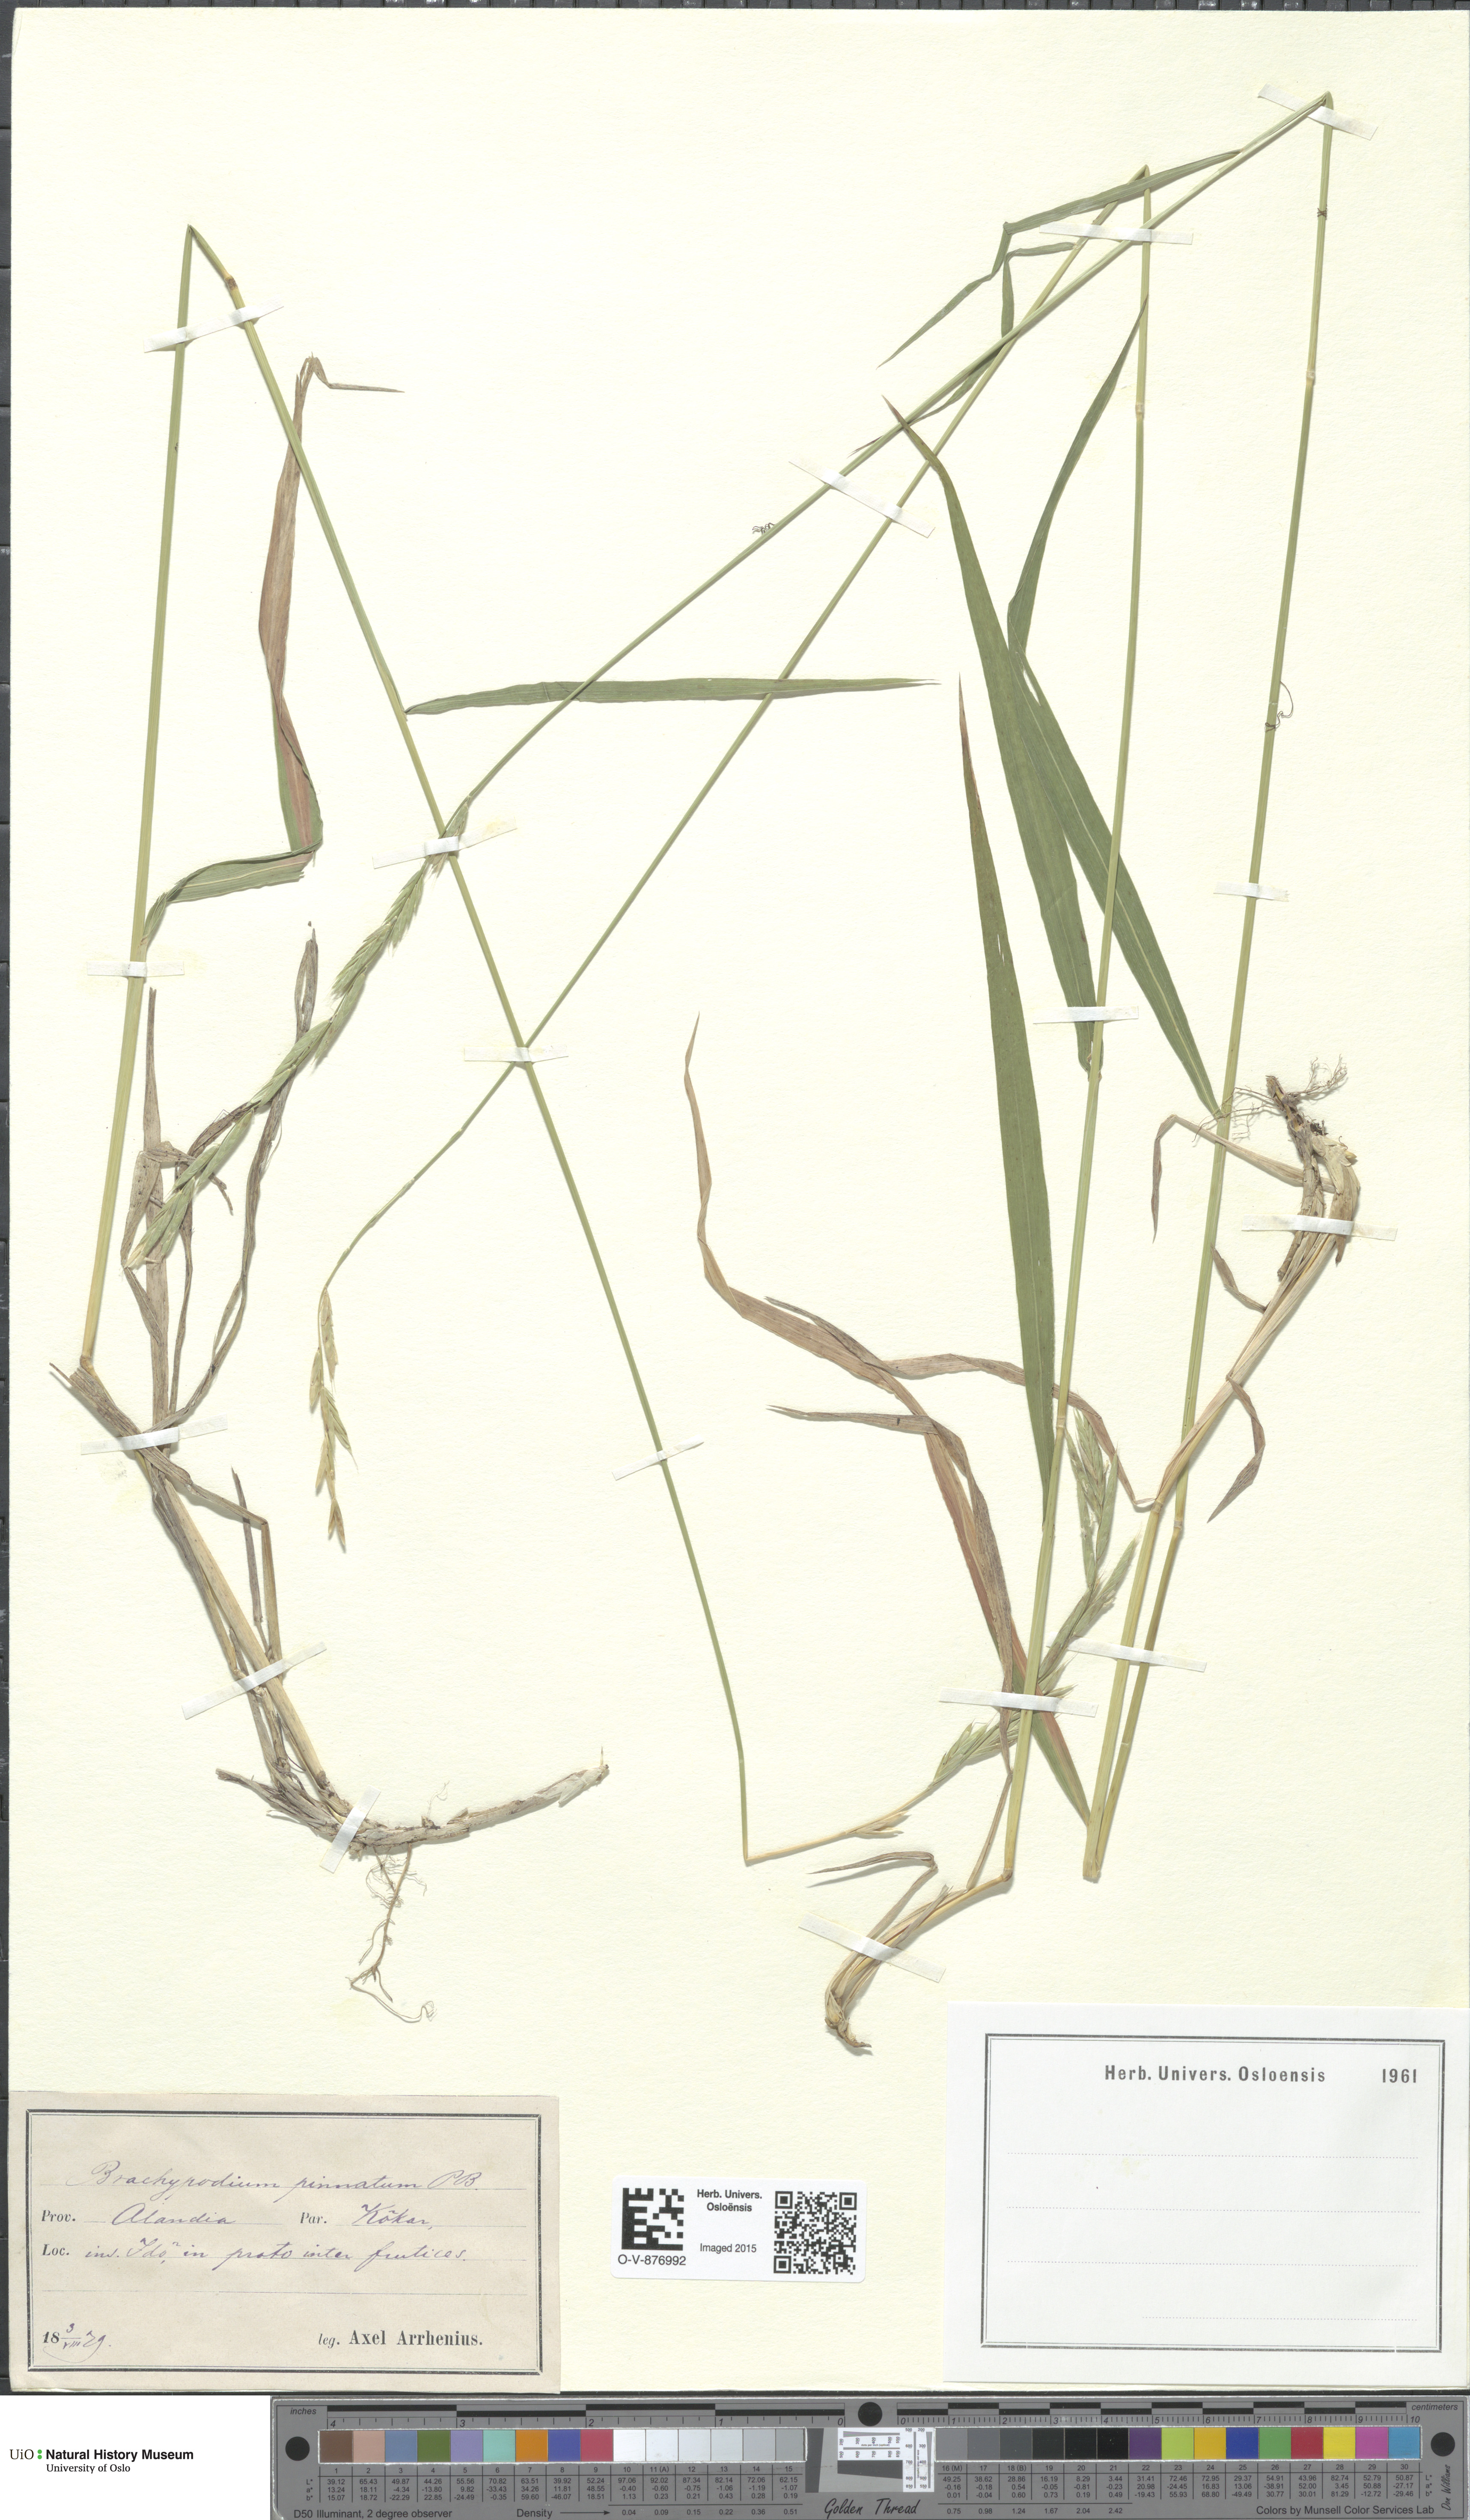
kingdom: Plantae
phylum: Tracheophyta
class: Liliopsida
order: Poales
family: Poaceae
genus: Brachypodium
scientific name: Brachypodium pinnatum
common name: Tor grass
